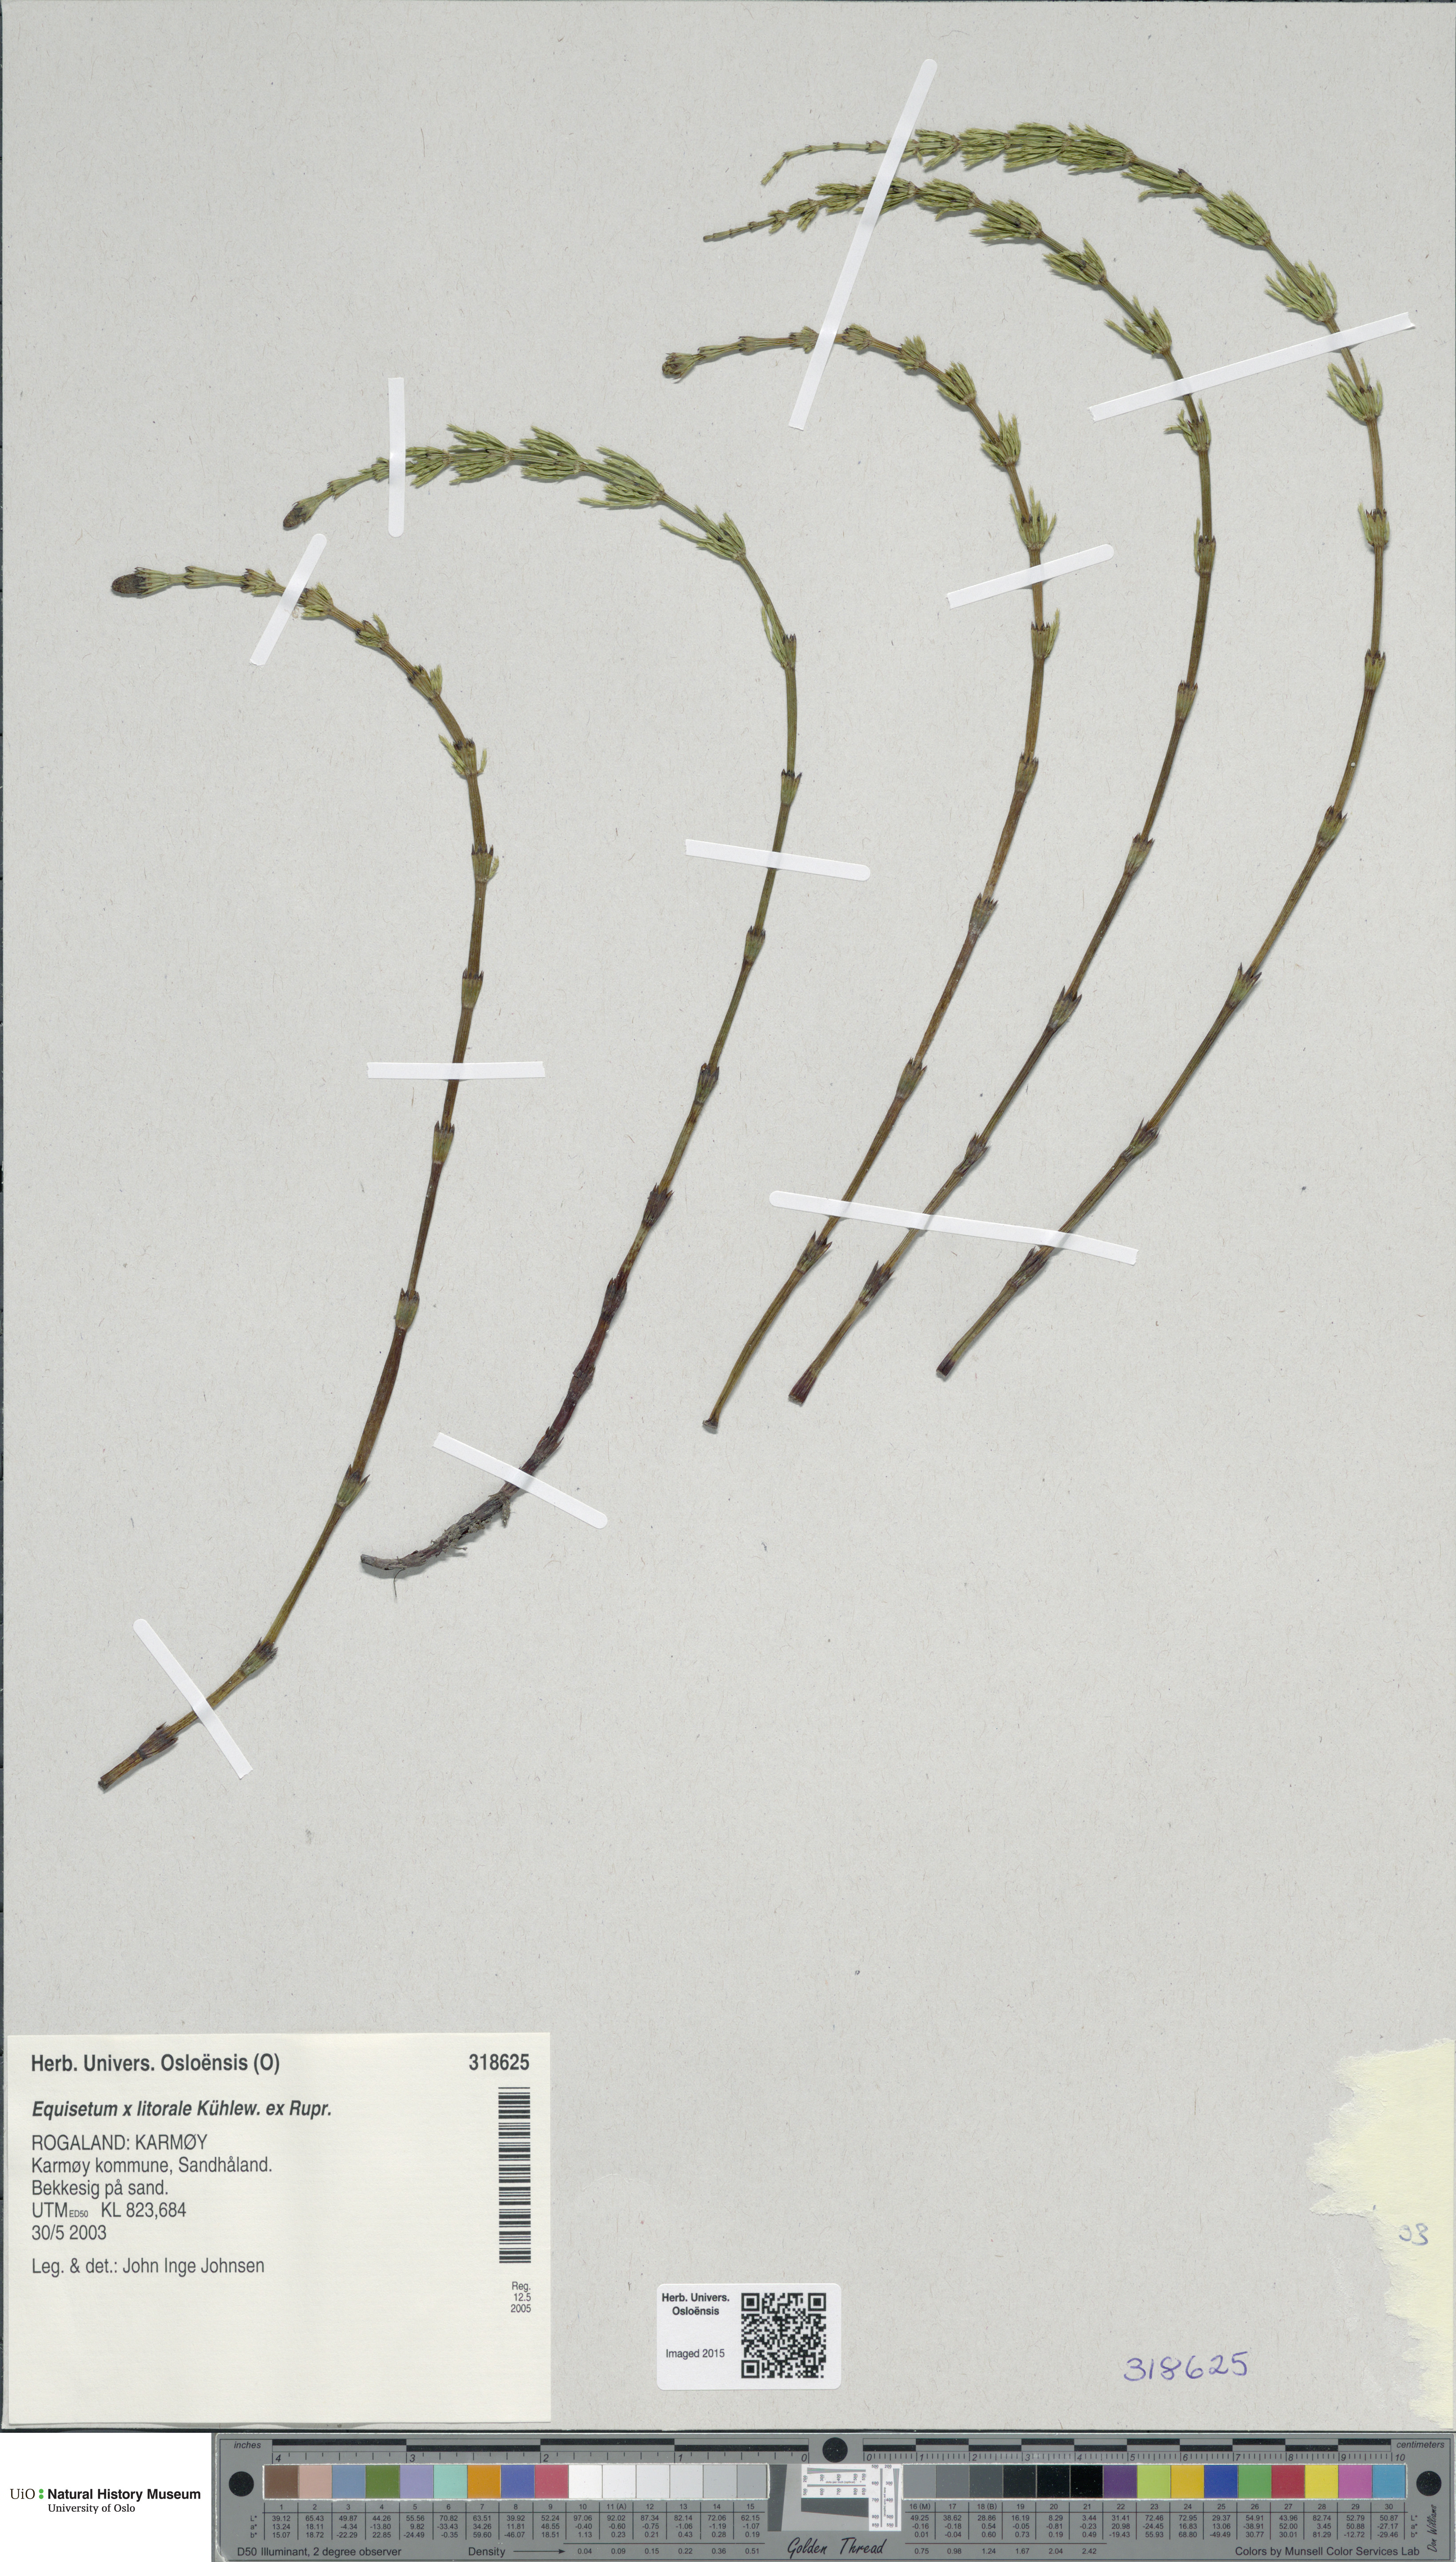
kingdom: Plantae
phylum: Tracheophyta
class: Polypodiopsida
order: Equisetales
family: Equisetaceae
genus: Equisetum
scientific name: Equisetum litorale
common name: Littoral horsetail
